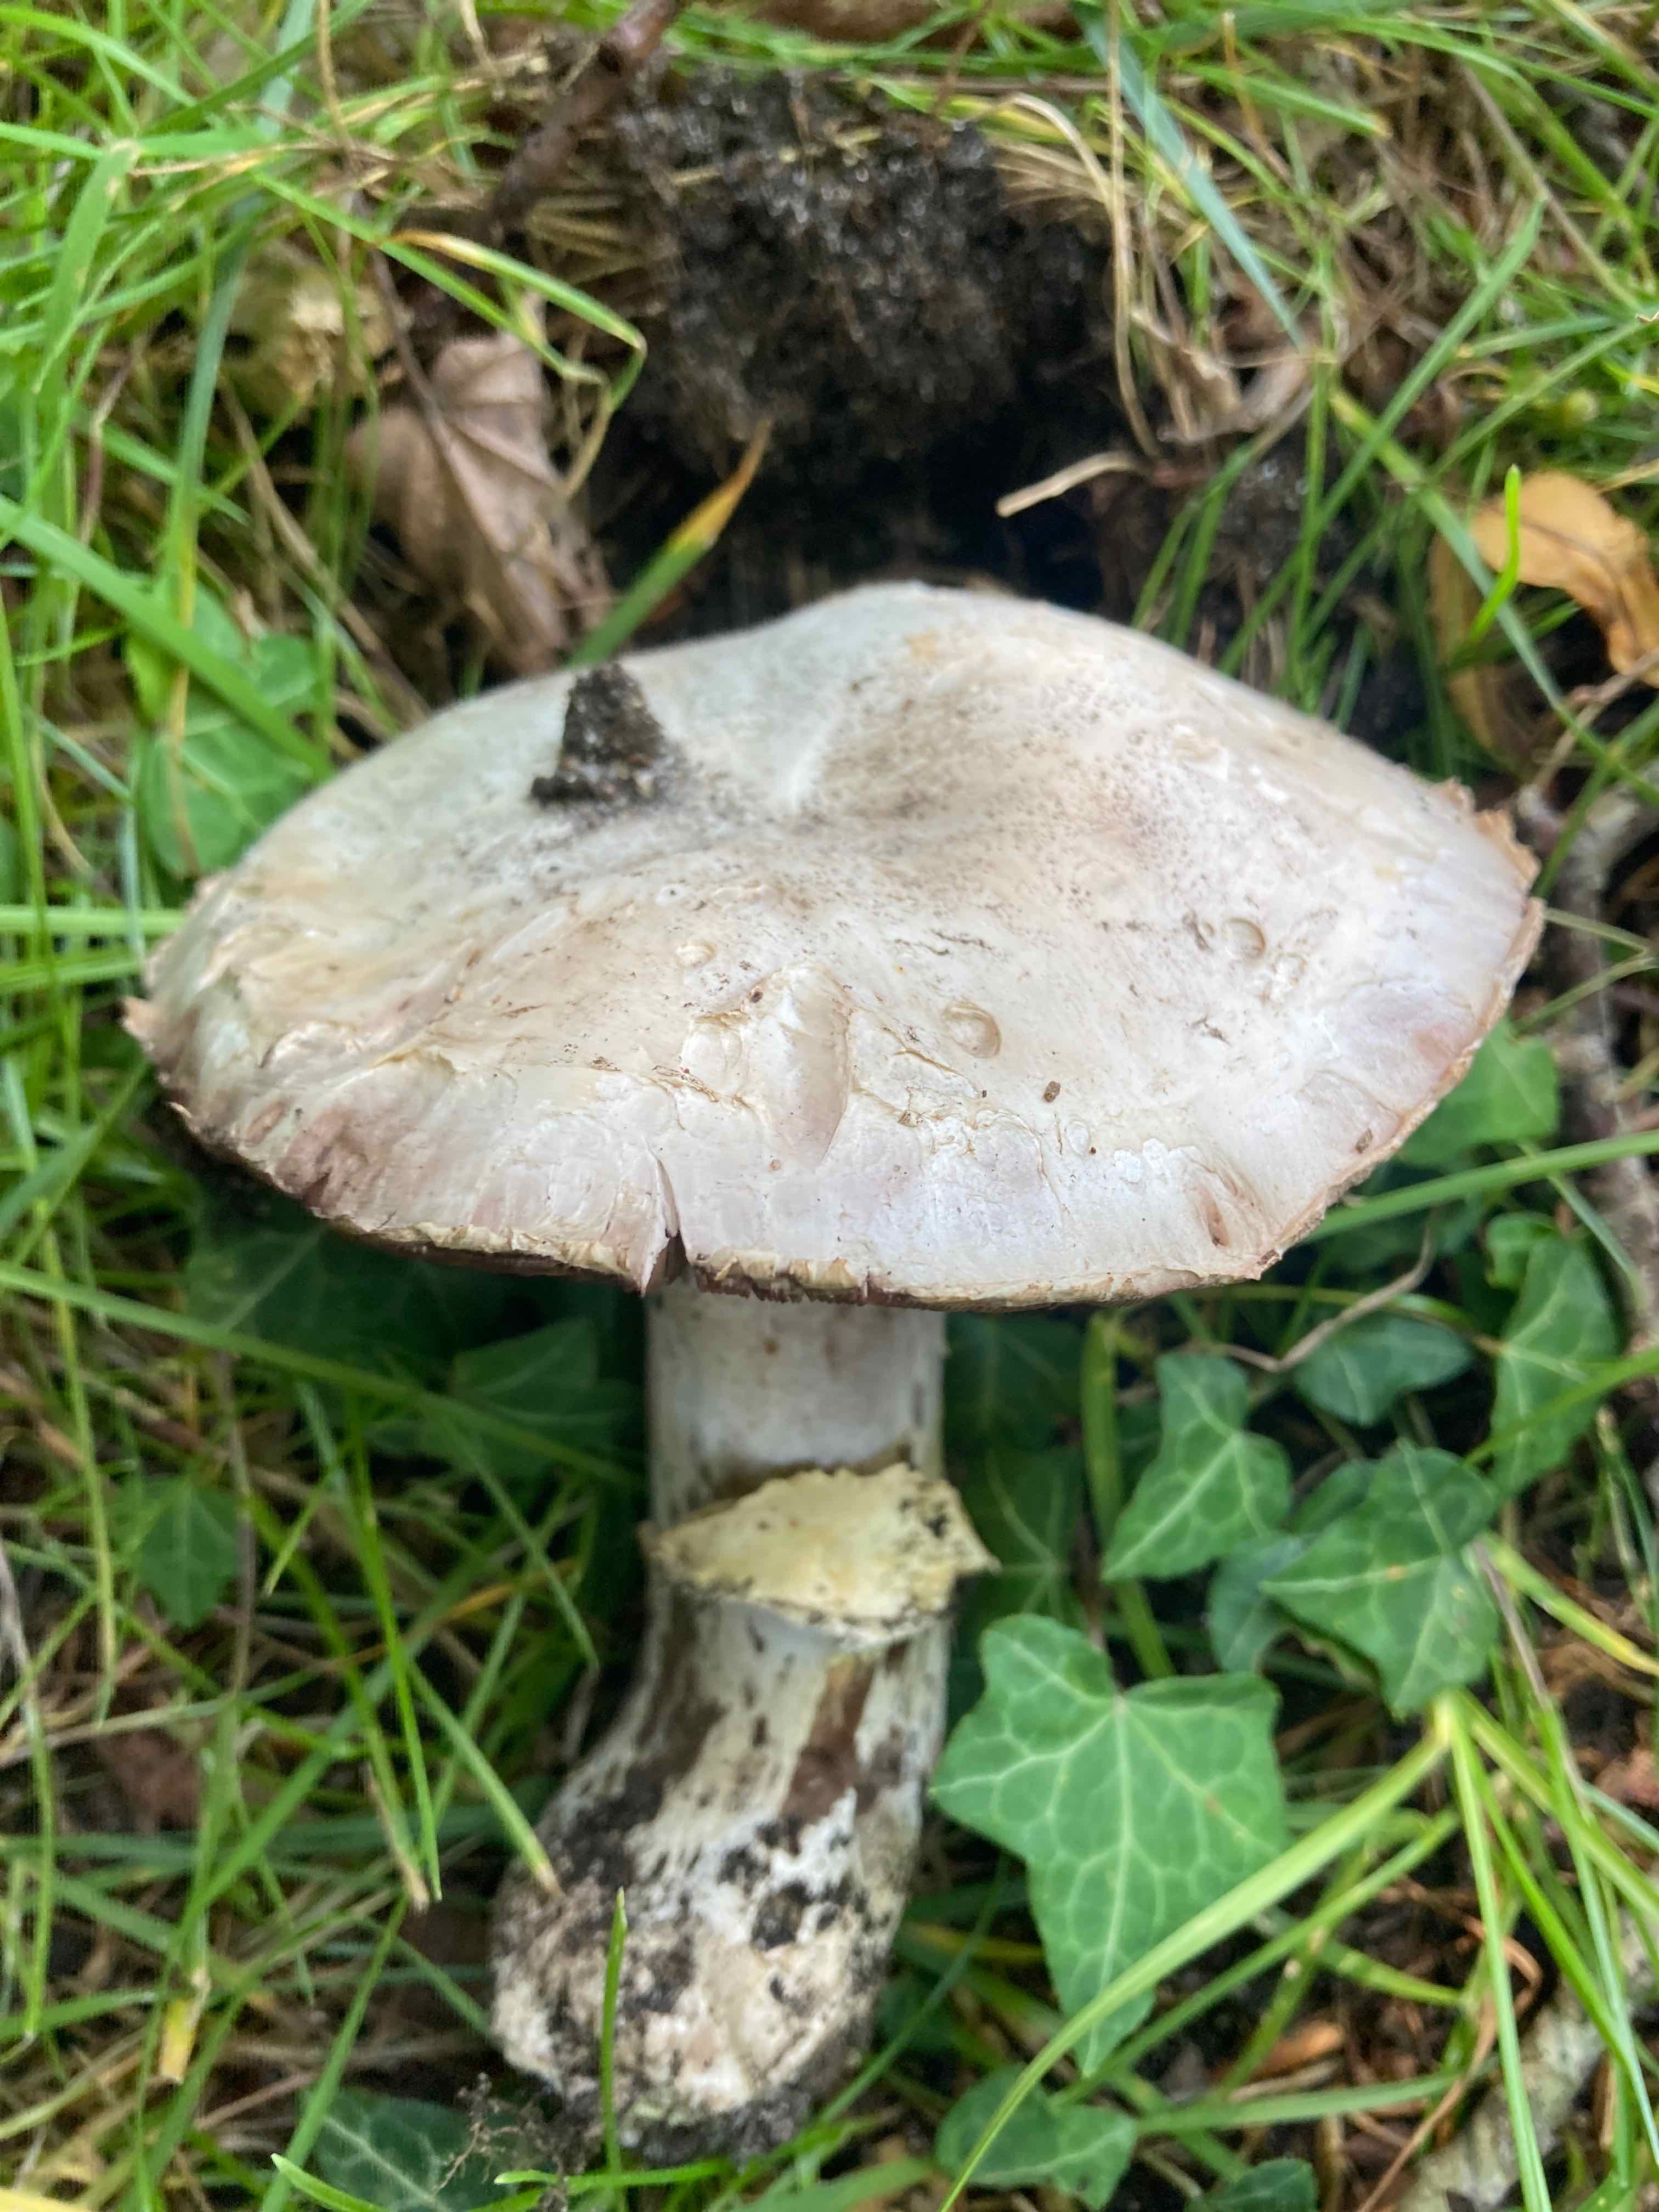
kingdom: Fungi
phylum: Basidiomycota
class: Agaricomycetes
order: Agaricales
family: Agaricaceae
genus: Agaricus
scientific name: Agaricus bitorquis
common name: vej-champignon
